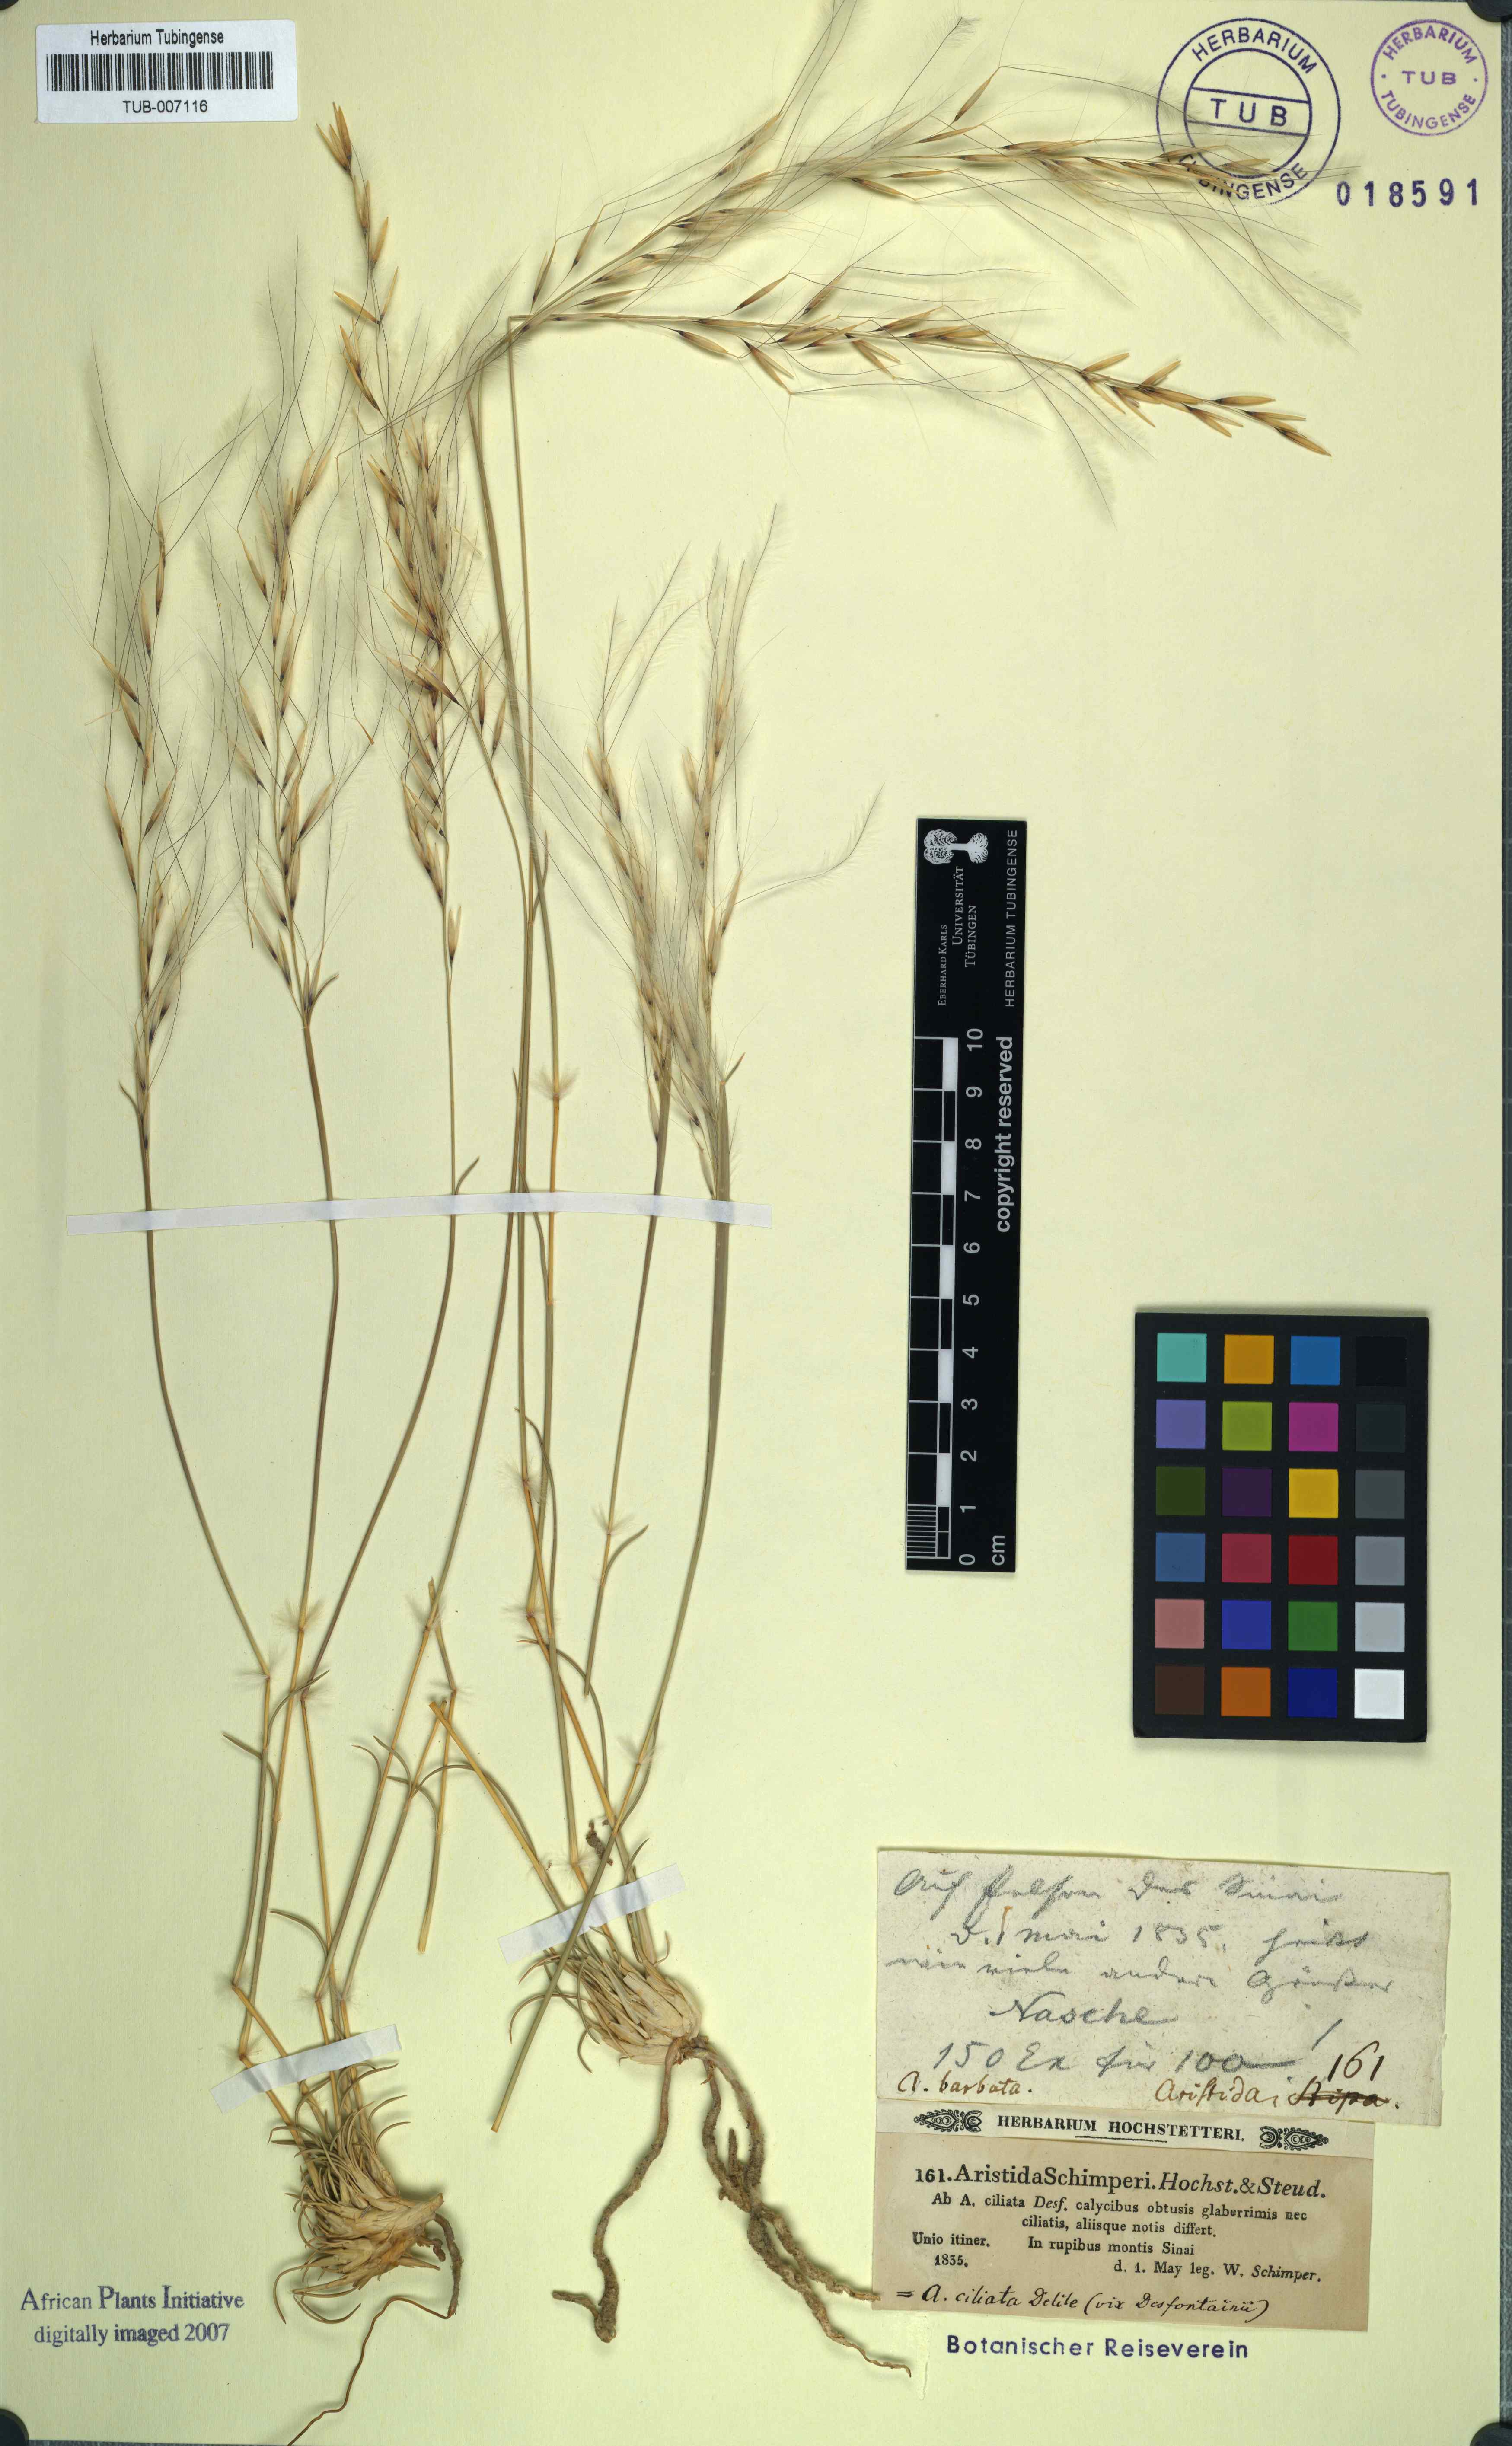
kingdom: Plantae
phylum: Tracheophyta
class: Liliopsida
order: Poales
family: Poaceae
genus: Stipagrostis
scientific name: Stipagrostis ciliata
